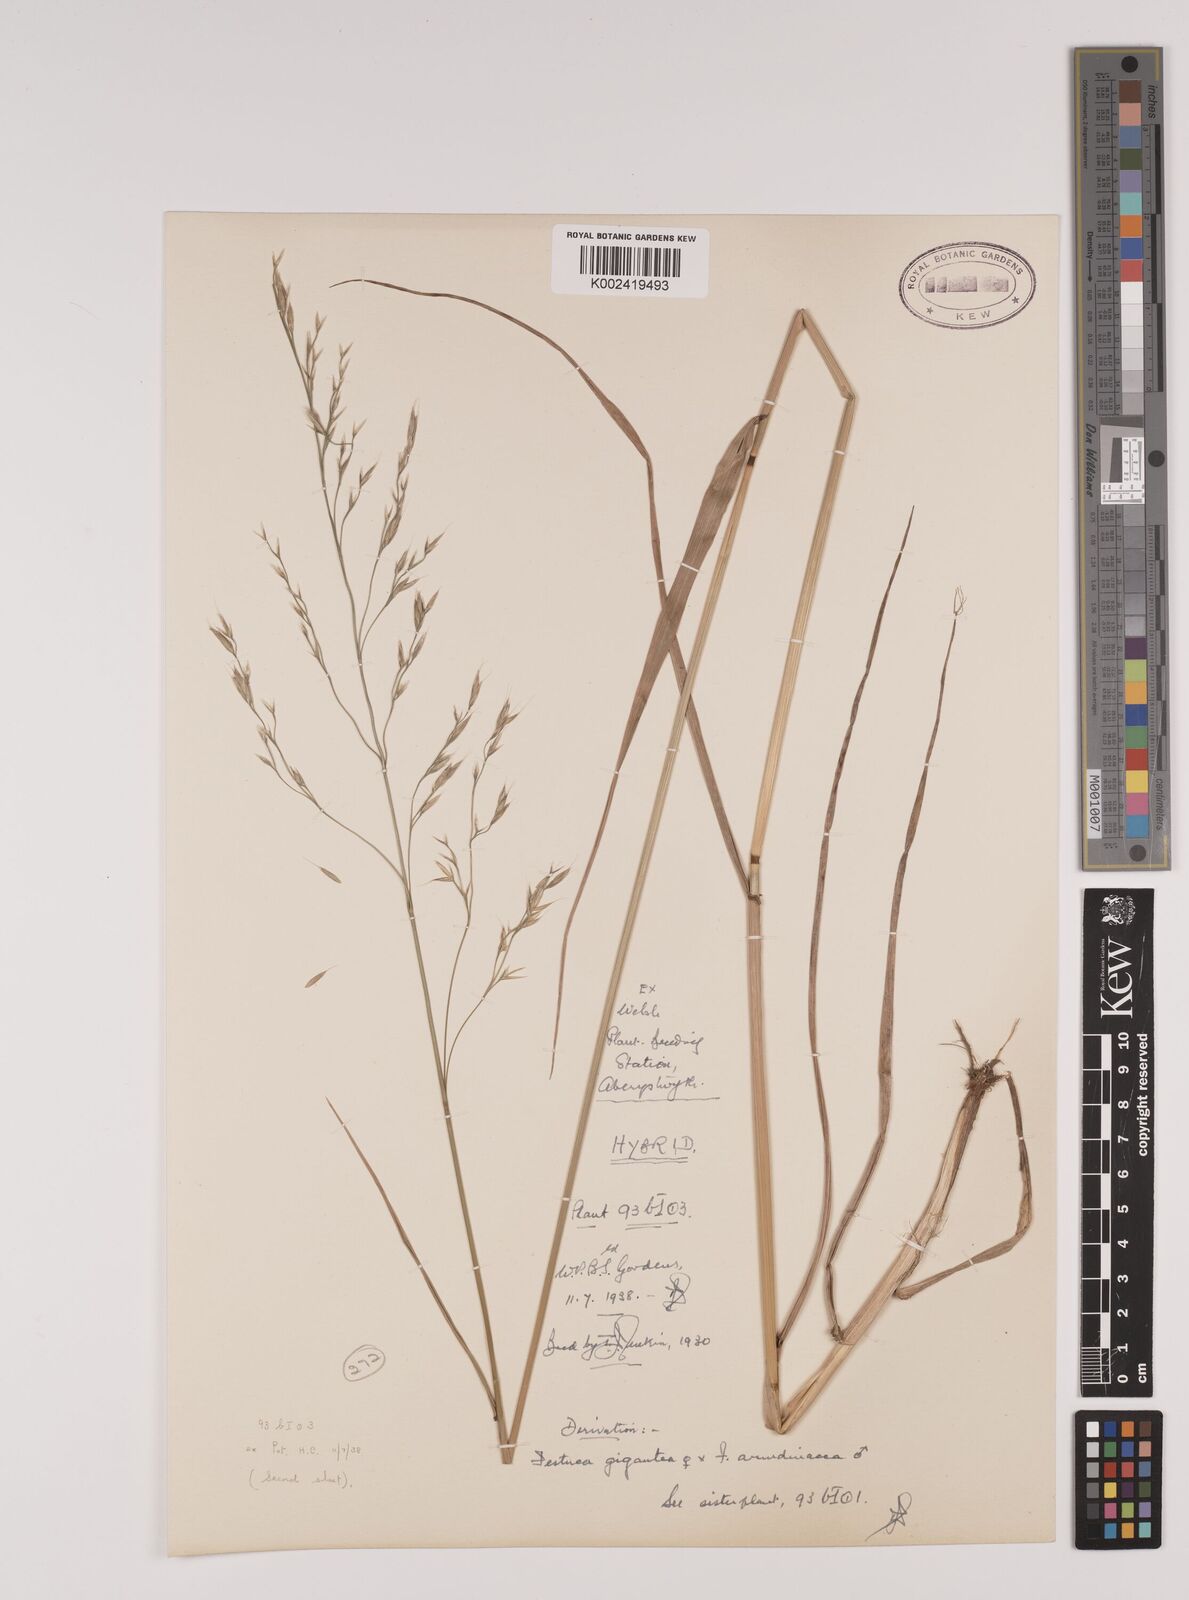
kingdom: Plantae
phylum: Tracheophyta
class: Liliopsida
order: Poales
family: Poaceae
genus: Lolium
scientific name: Lolium giganteum
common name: Giant fescue
